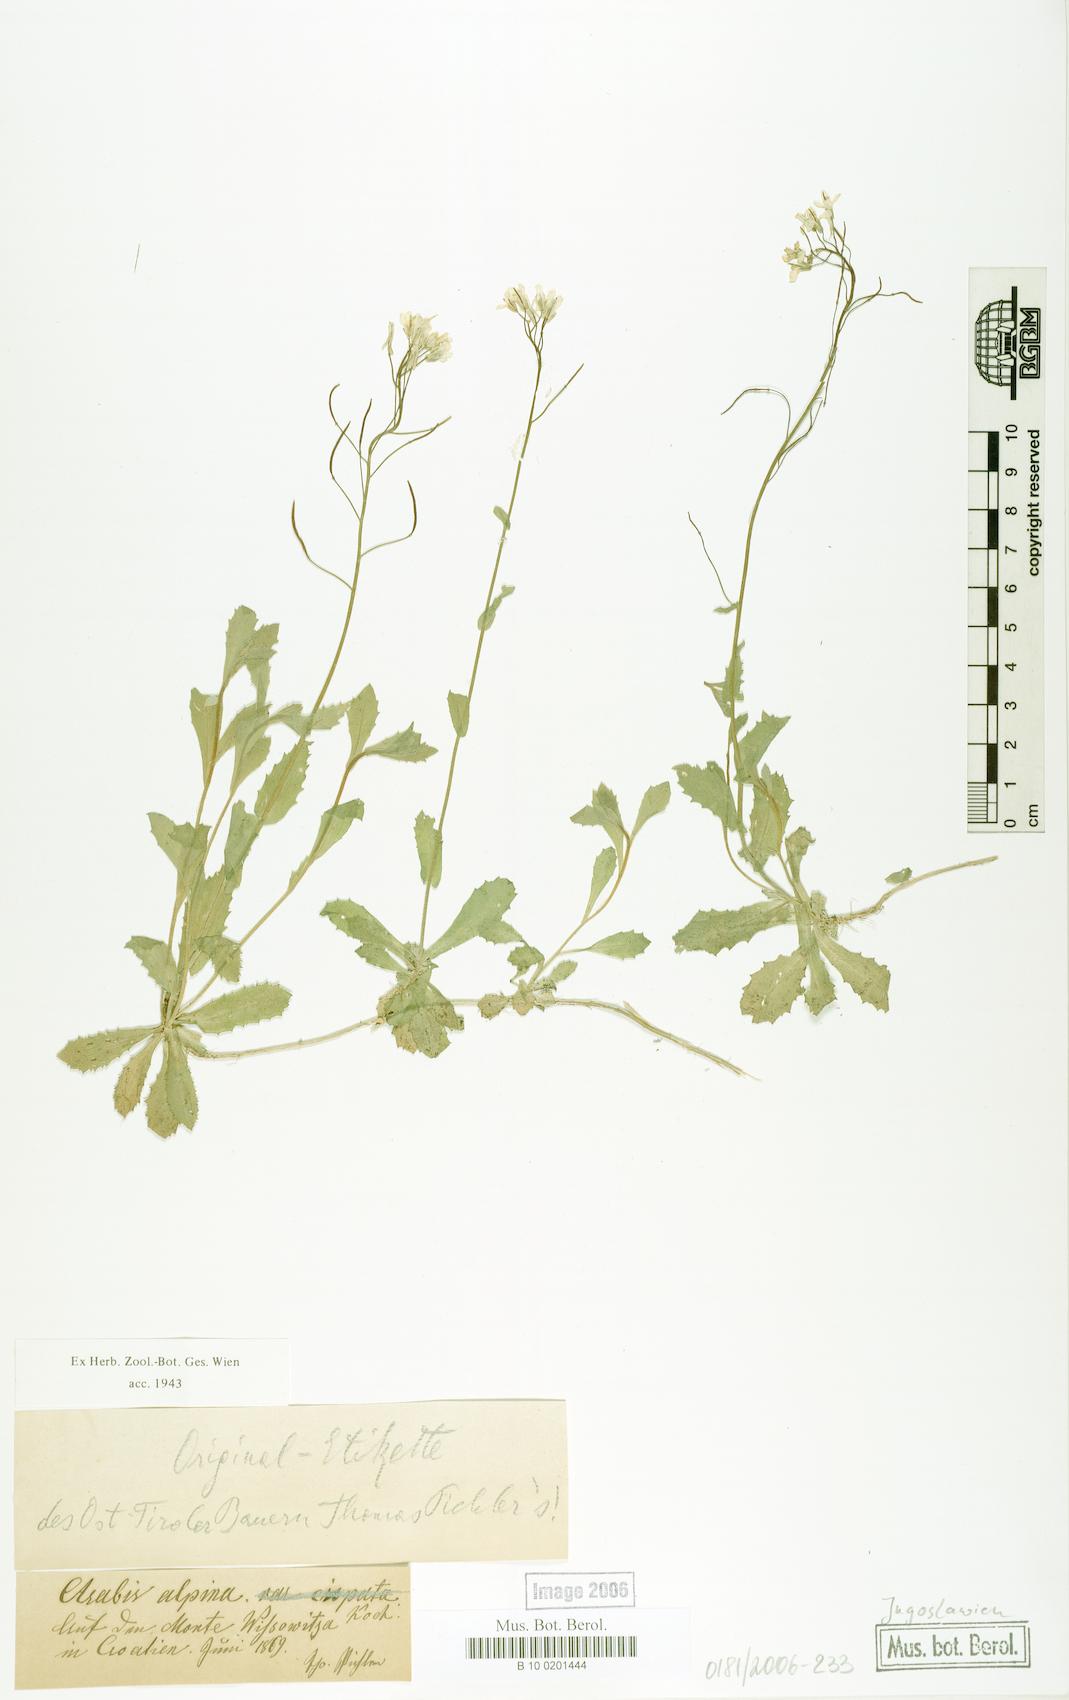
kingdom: Plantae
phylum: Tracheophyta
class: Magnoliopsida
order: Brassicales
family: Brassicaceae
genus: Arabis
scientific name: Arabis alpina
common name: Alpine rock-cress
